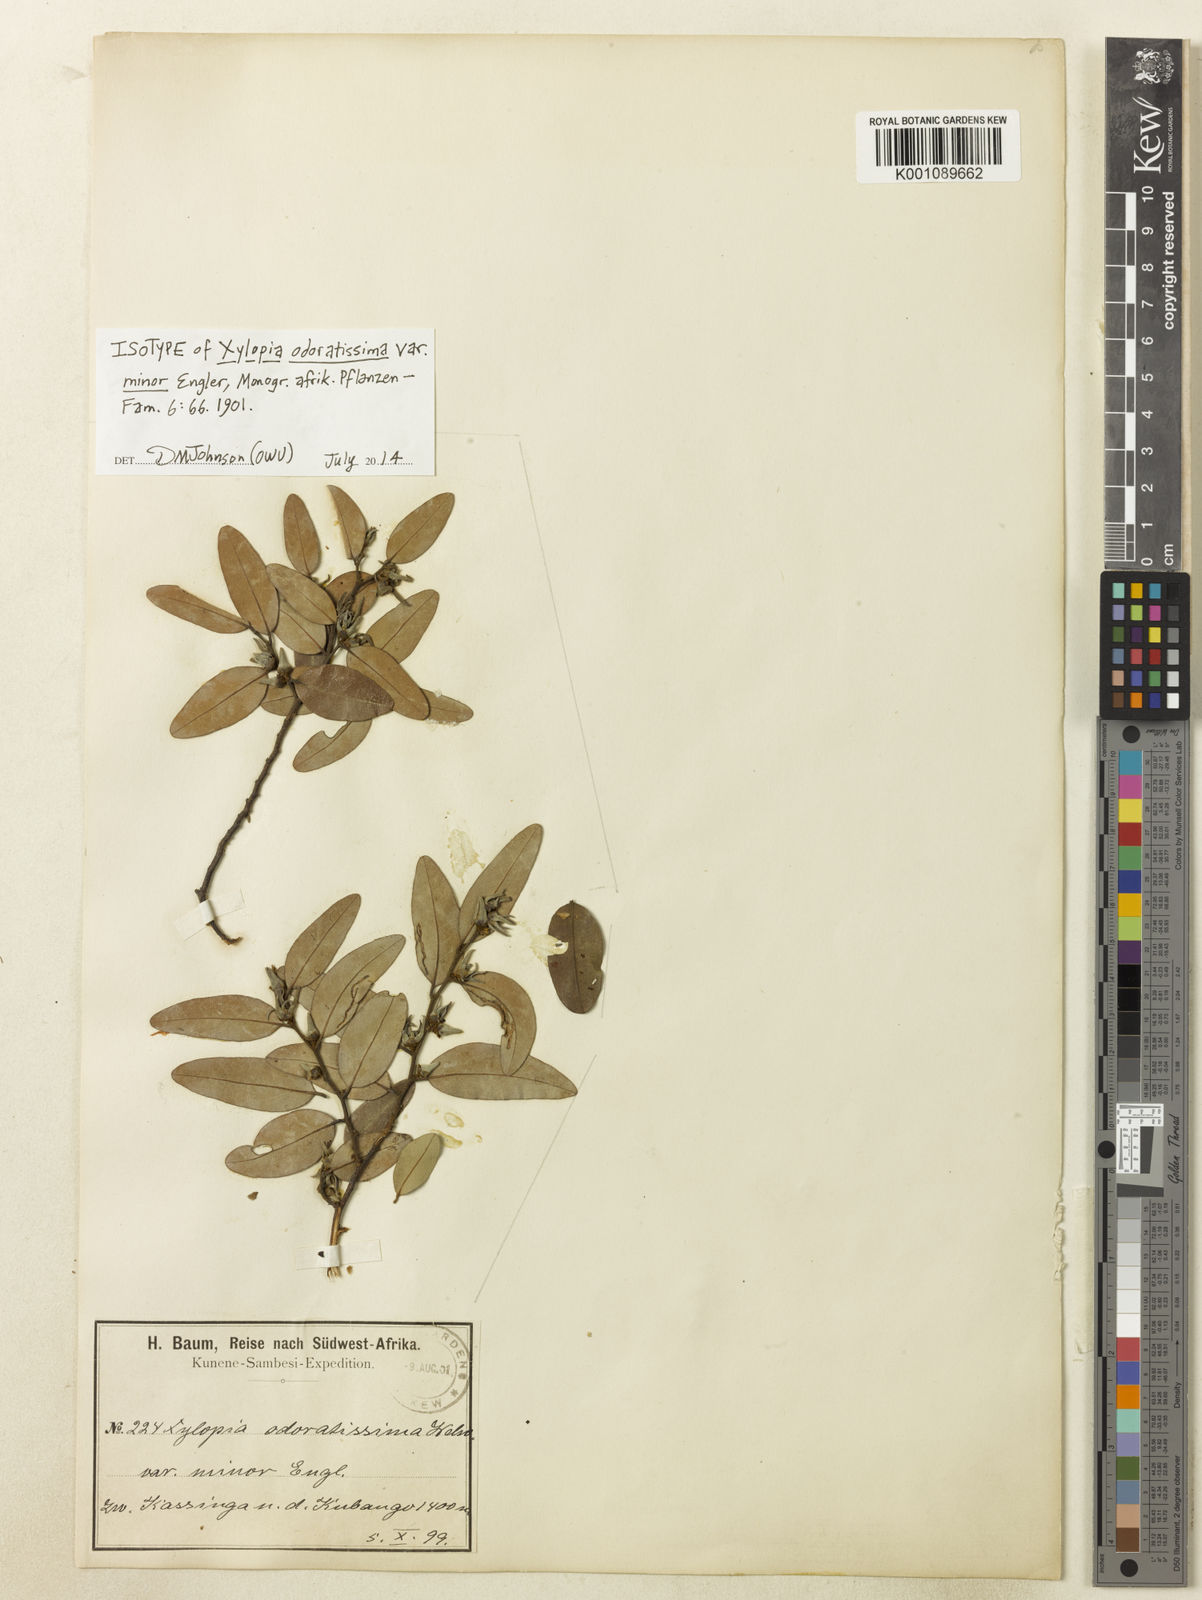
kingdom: Plantae
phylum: Tracheophyta
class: Magnoliopsida
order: Magnoliales
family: Annonaceae
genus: Xylopia
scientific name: Xylopia odoratissima
